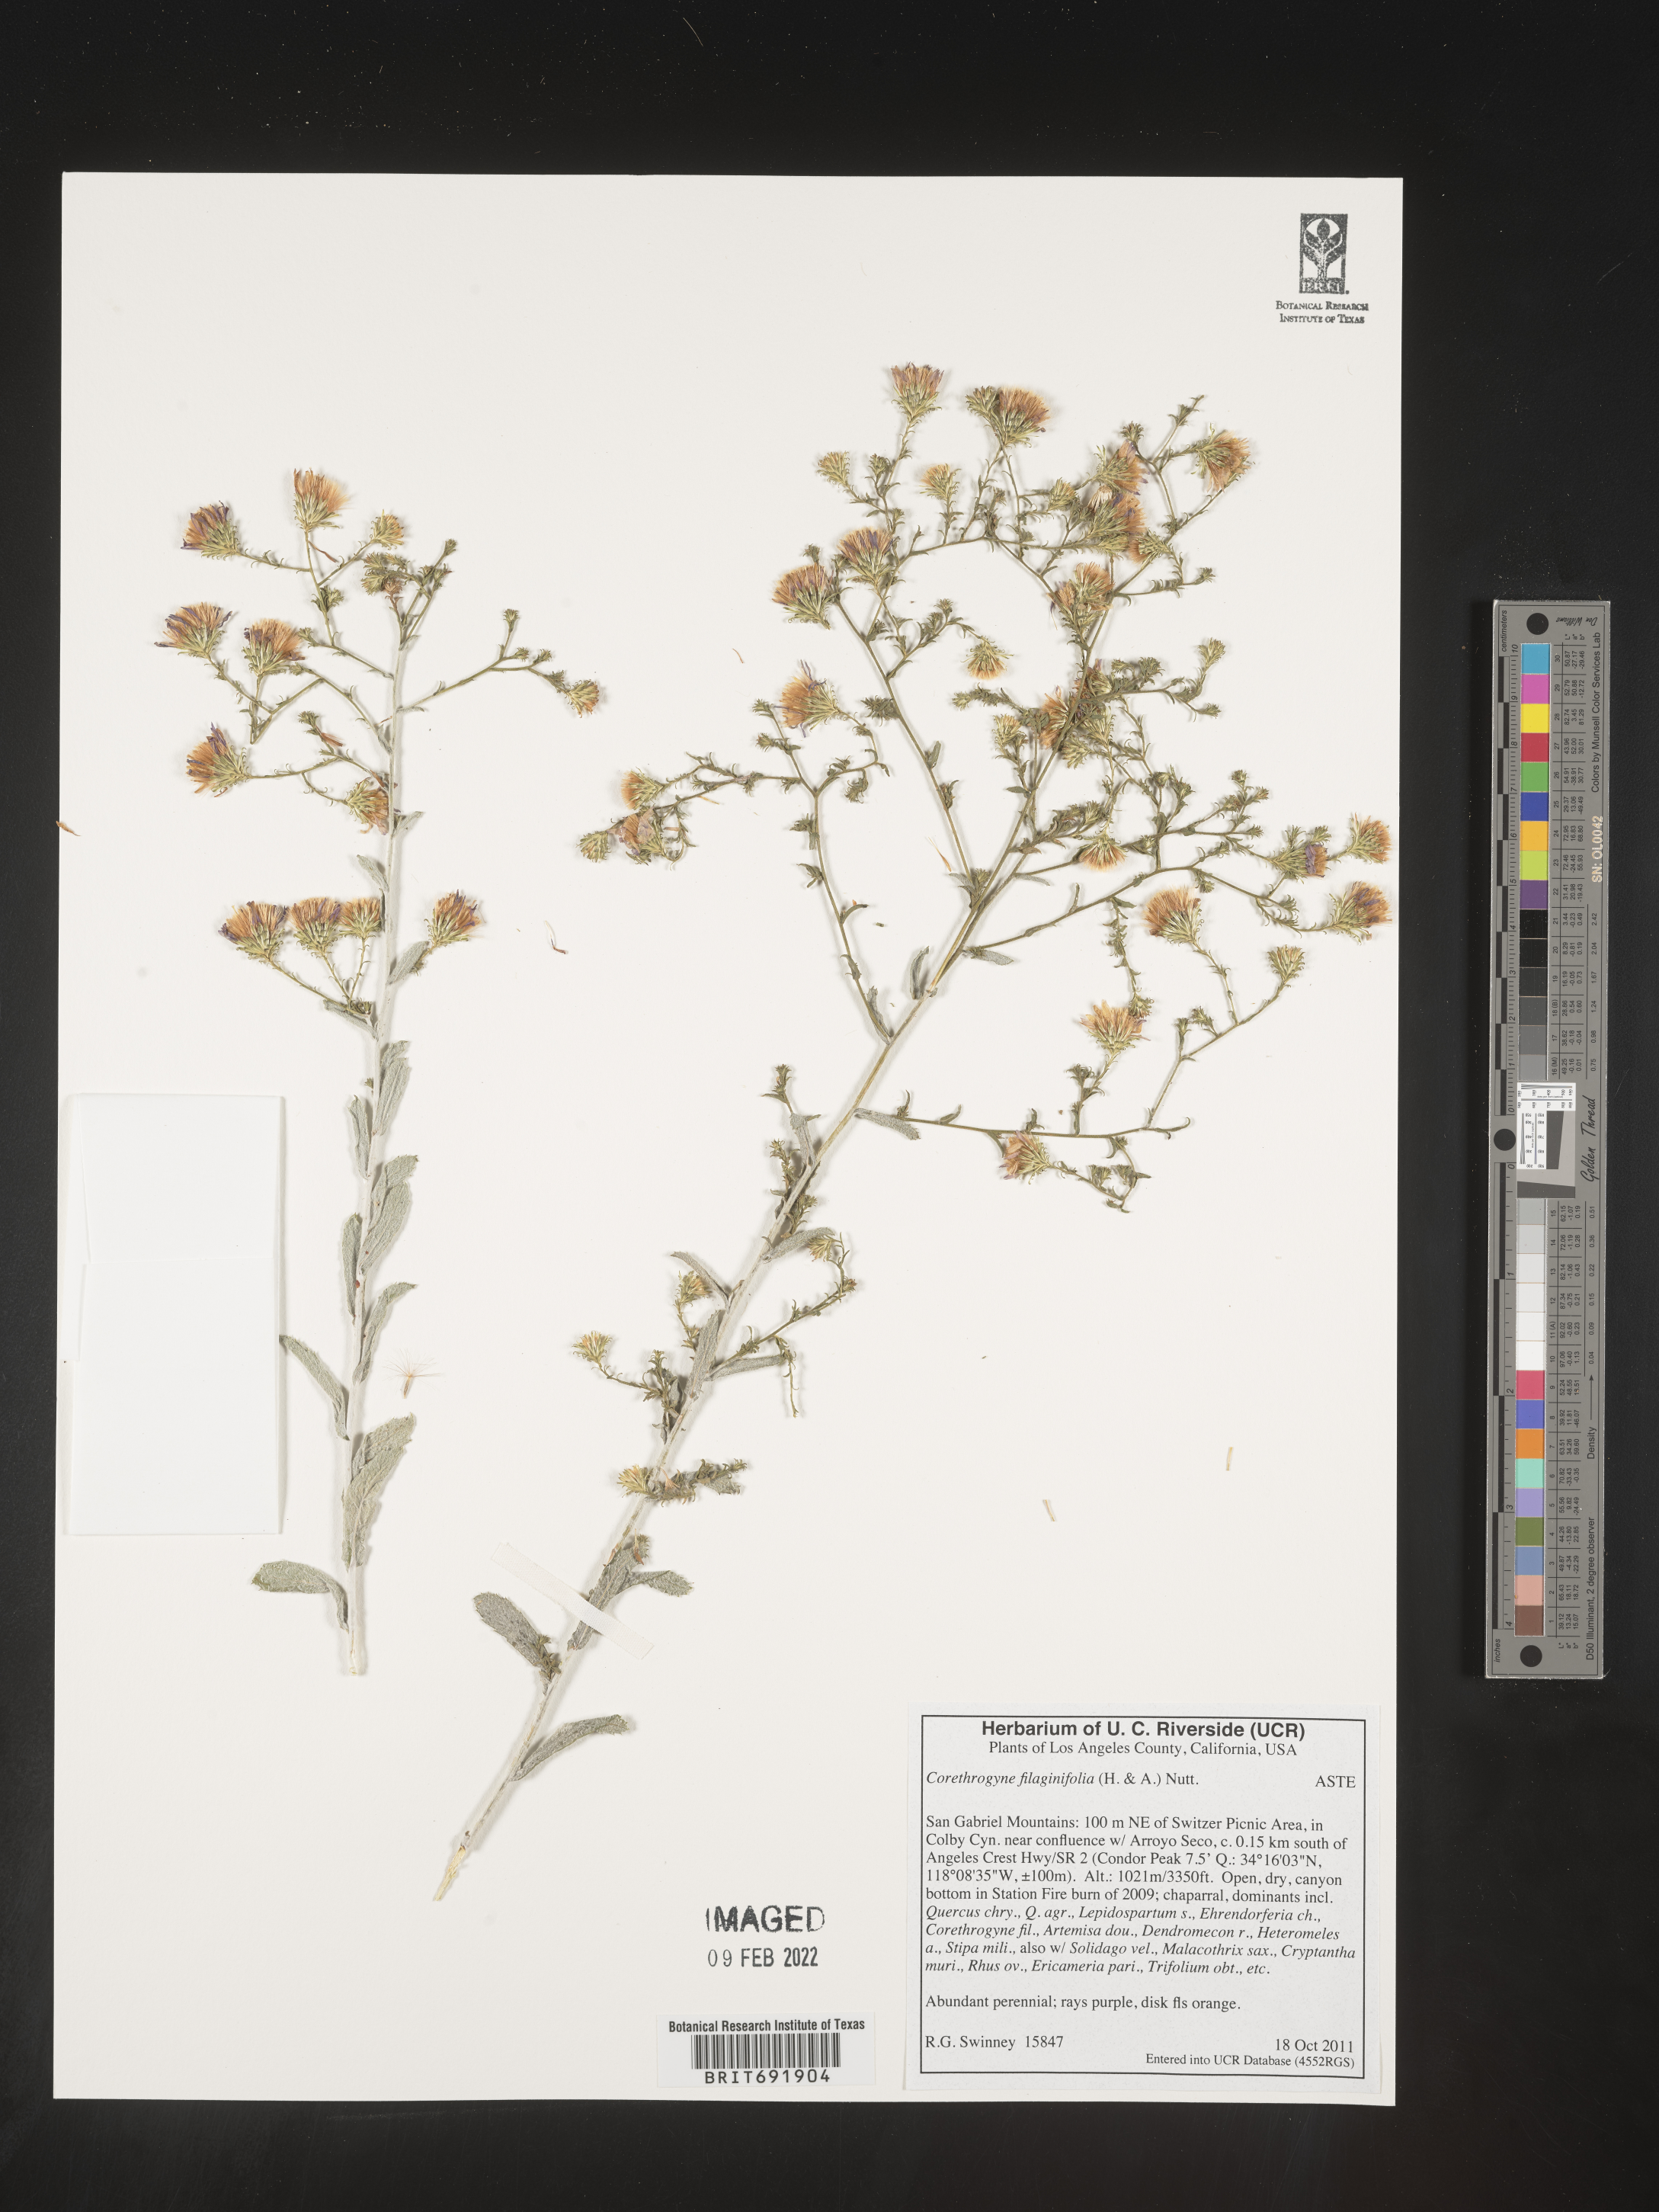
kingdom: Plantae
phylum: Tracheophyta
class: Magnoliopsida
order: Asterales
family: Asteraceae
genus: Corethrogyne
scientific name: Corethrogyne
